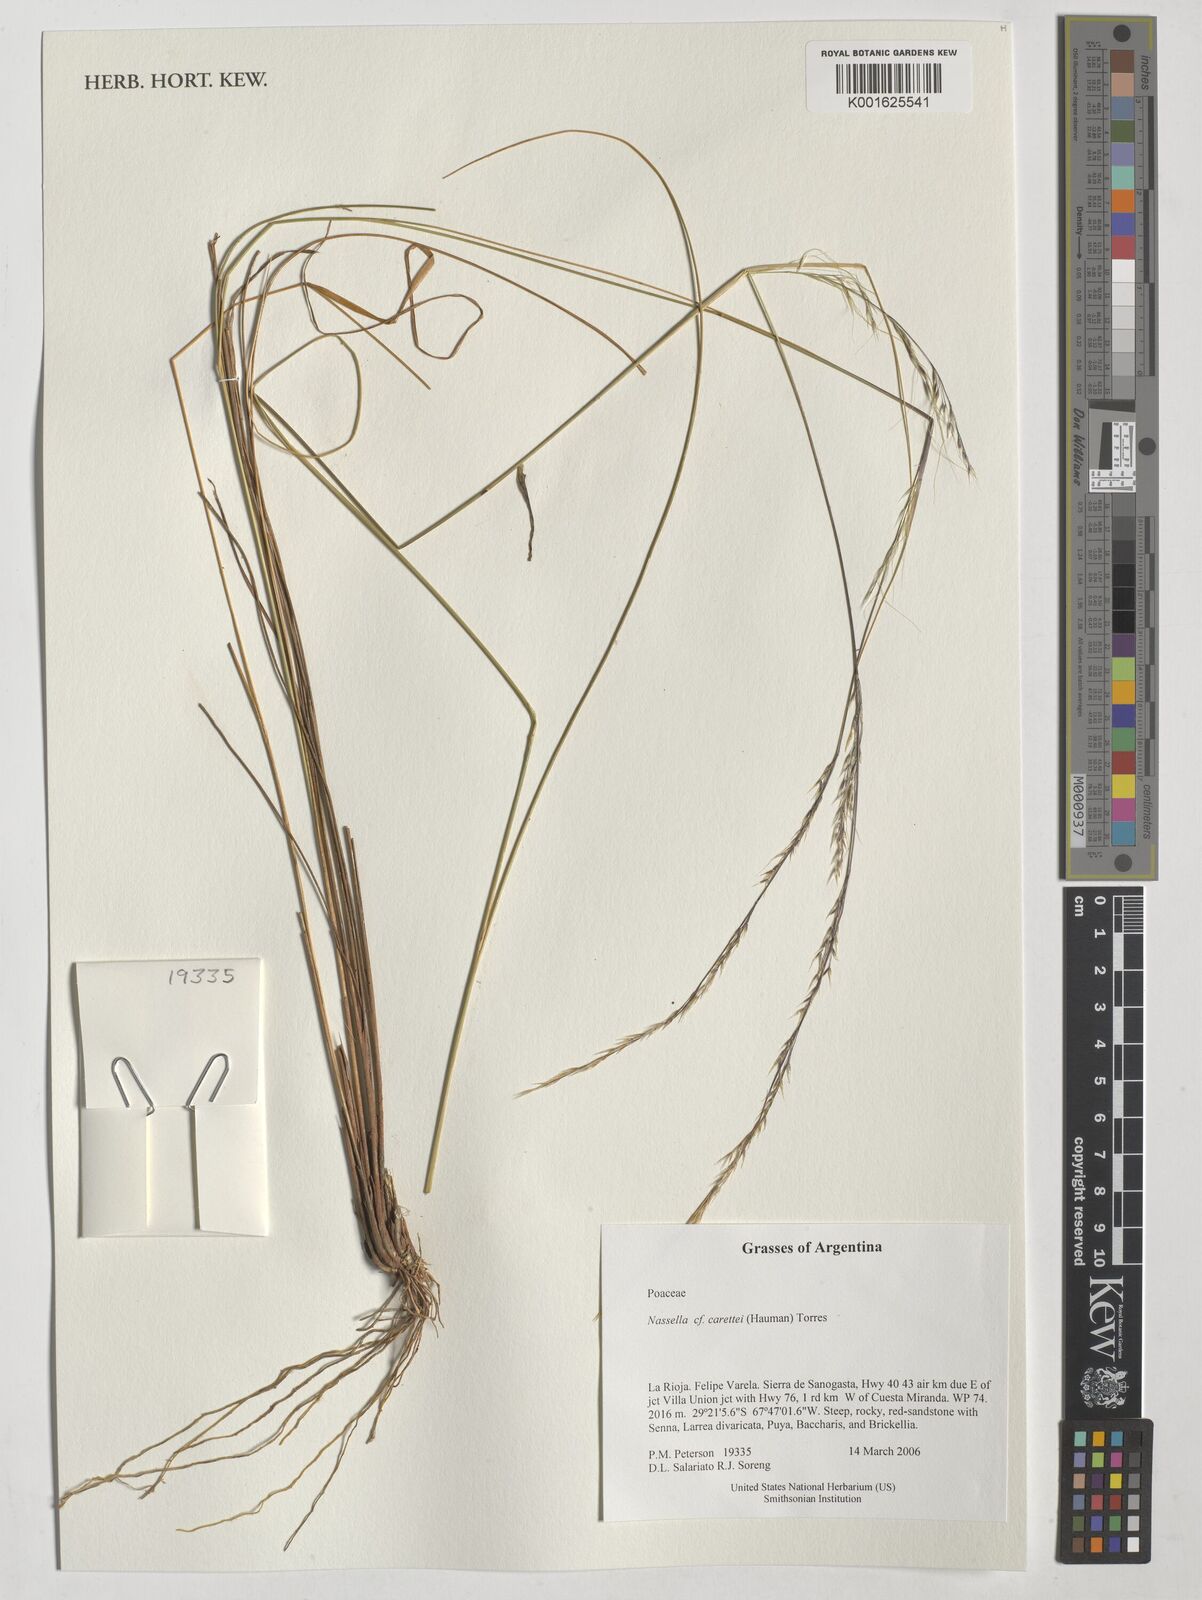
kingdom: Plantae
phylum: Tracheophyta
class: Liliopsida
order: Poales
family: Poaceae
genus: Nassella
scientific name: Nassella carettei
